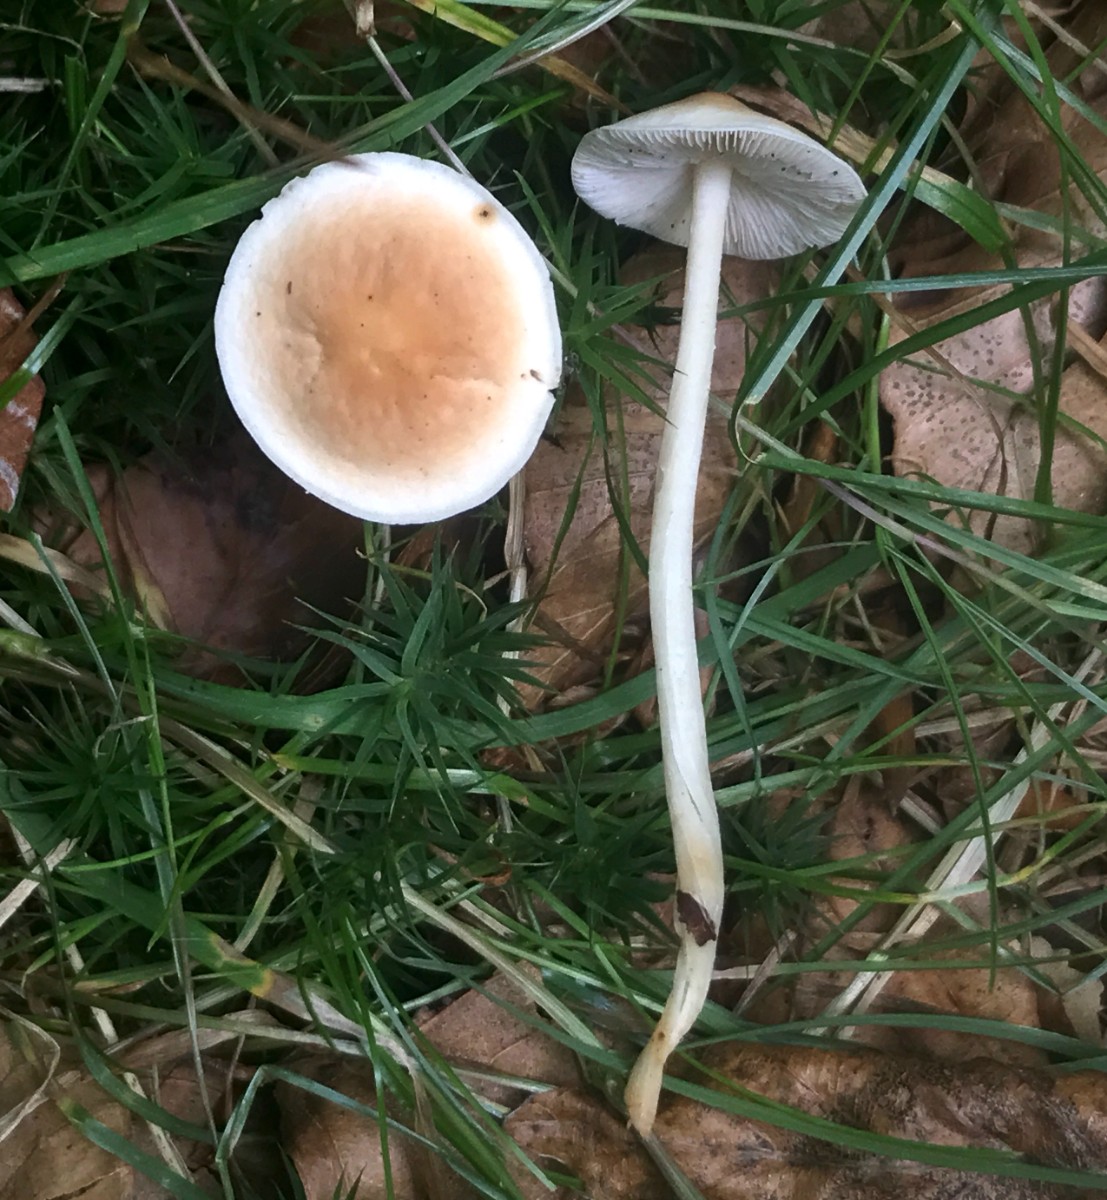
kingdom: Fungi
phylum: Basidiomycota
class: Agaricomycetes
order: Agaricales
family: Omphalotaceae
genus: Gymnopus
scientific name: Gymnopus
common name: fladhat
